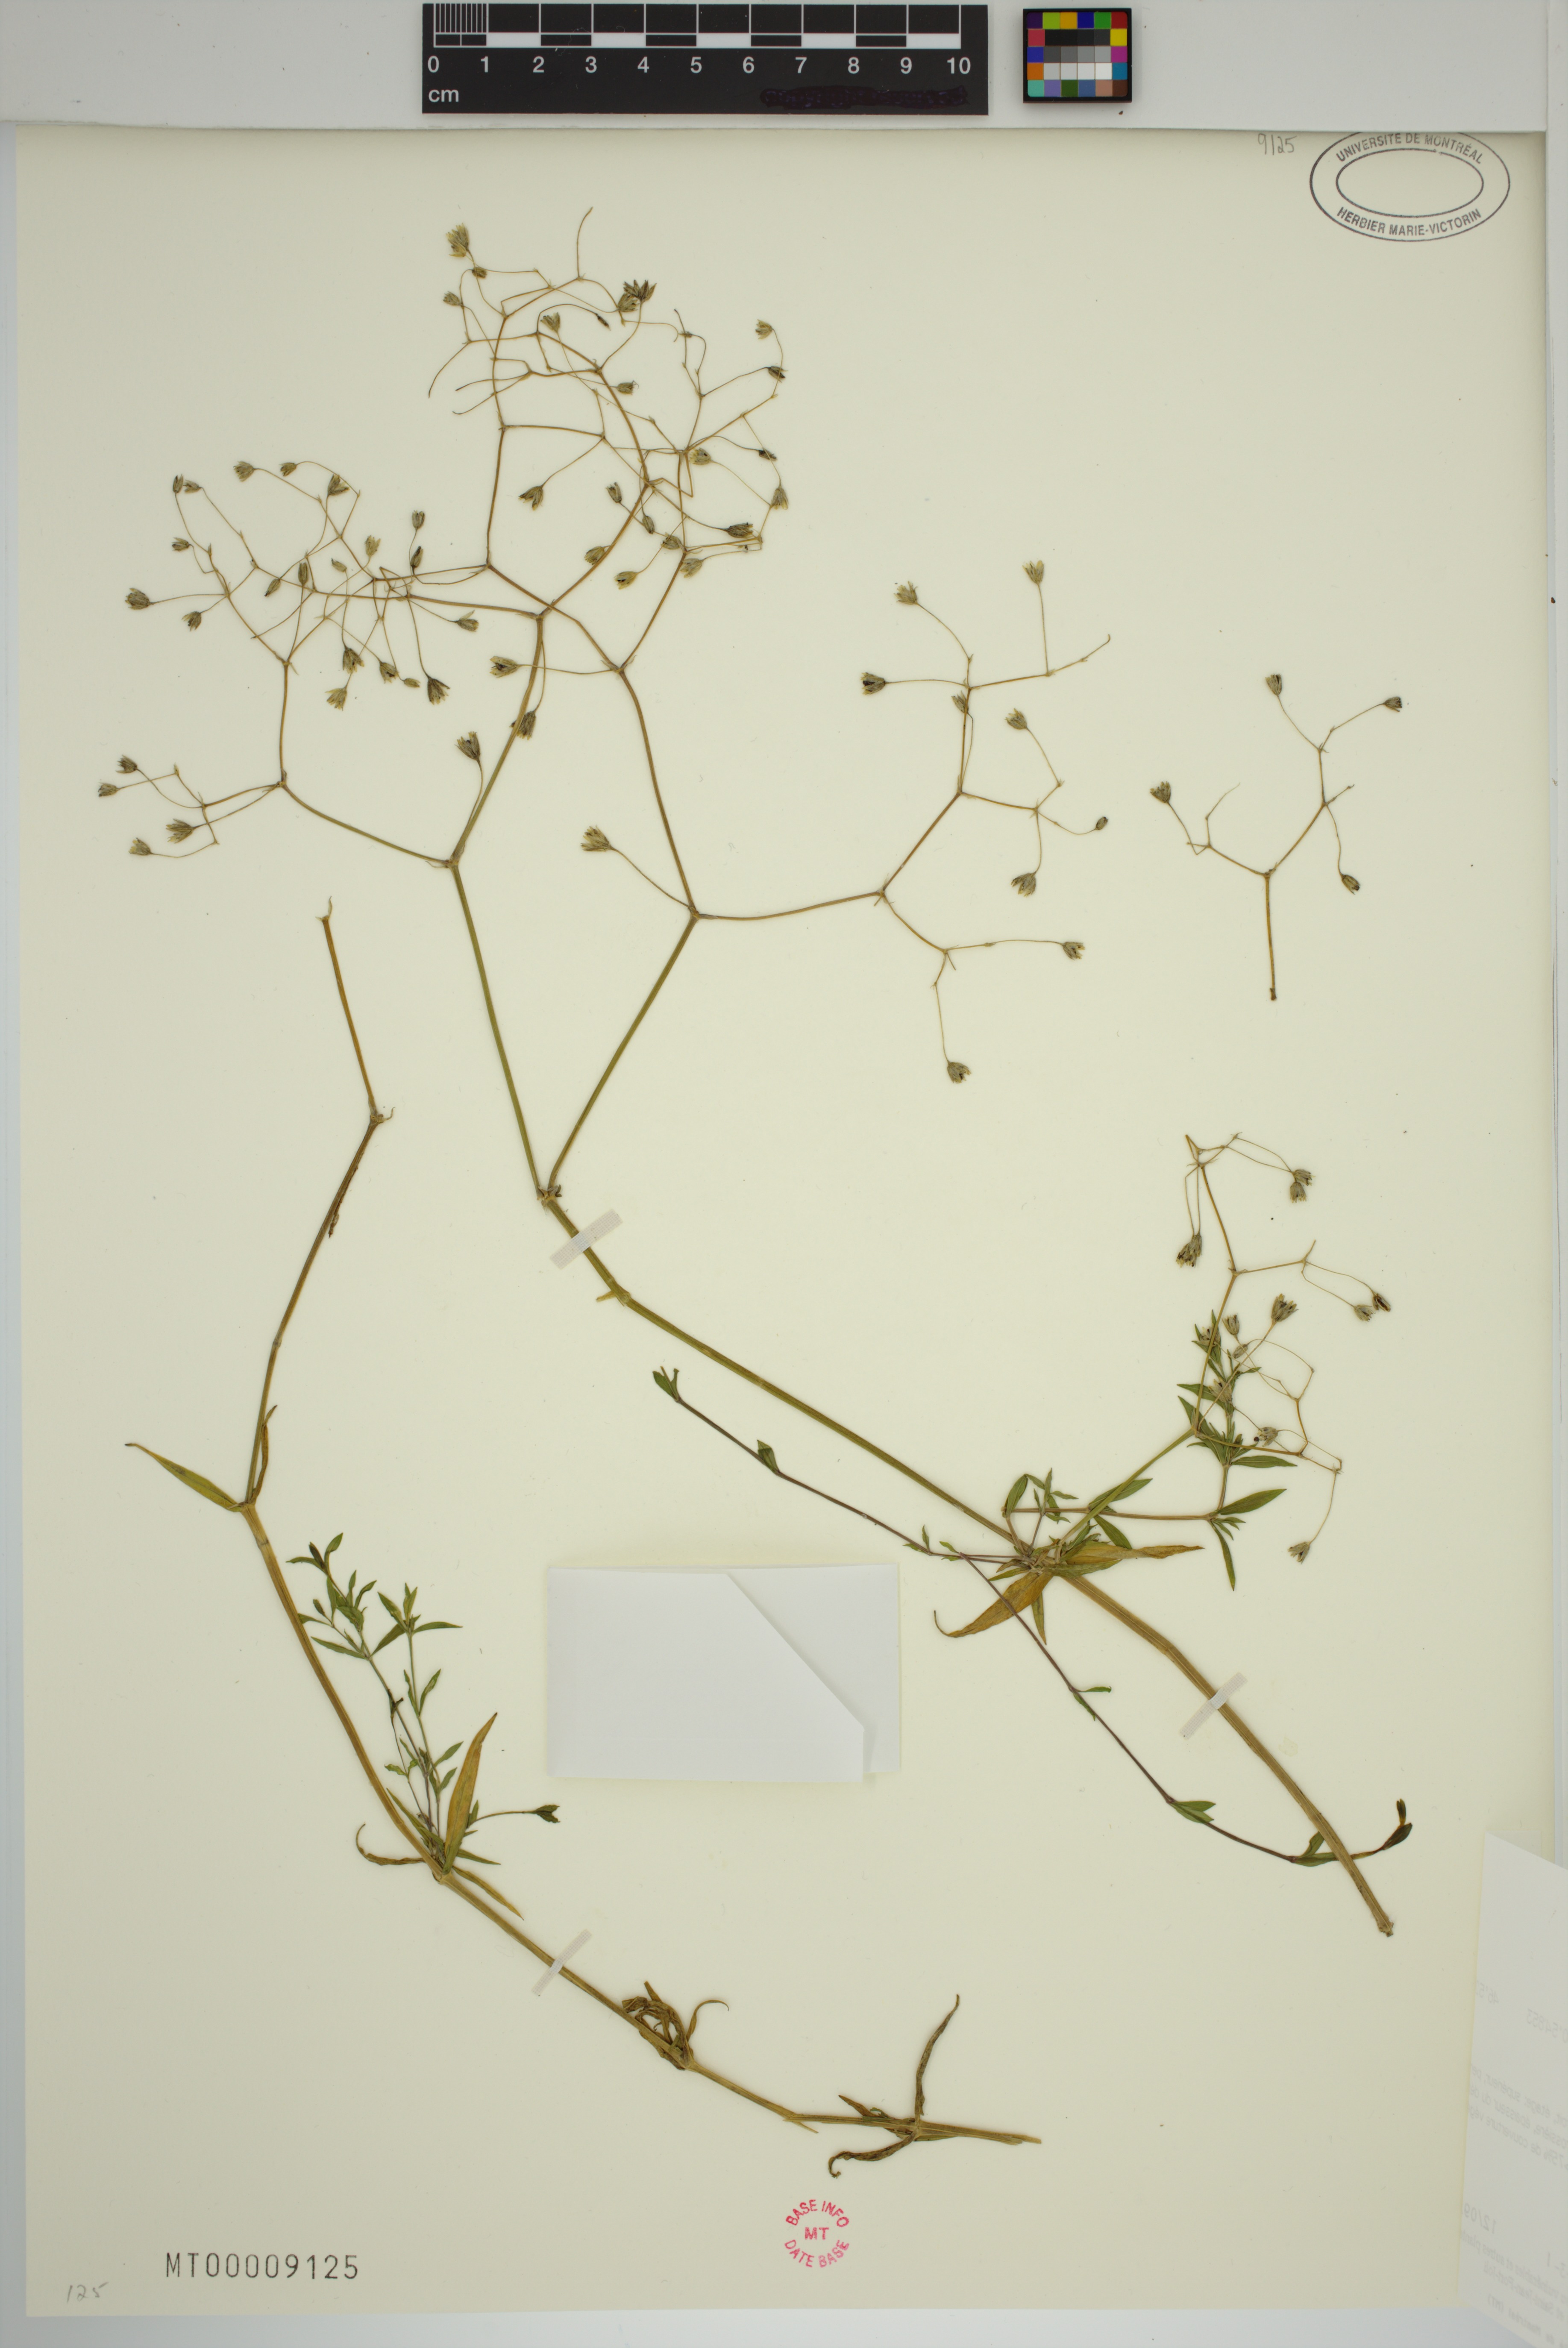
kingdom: Plantae
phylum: Tracheophyta
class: Magnoliopsida
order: Caryophyllales
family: Caryophyllaceae
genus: Stellaria
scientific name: Stellaria graminea
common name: Grass-like starwort
